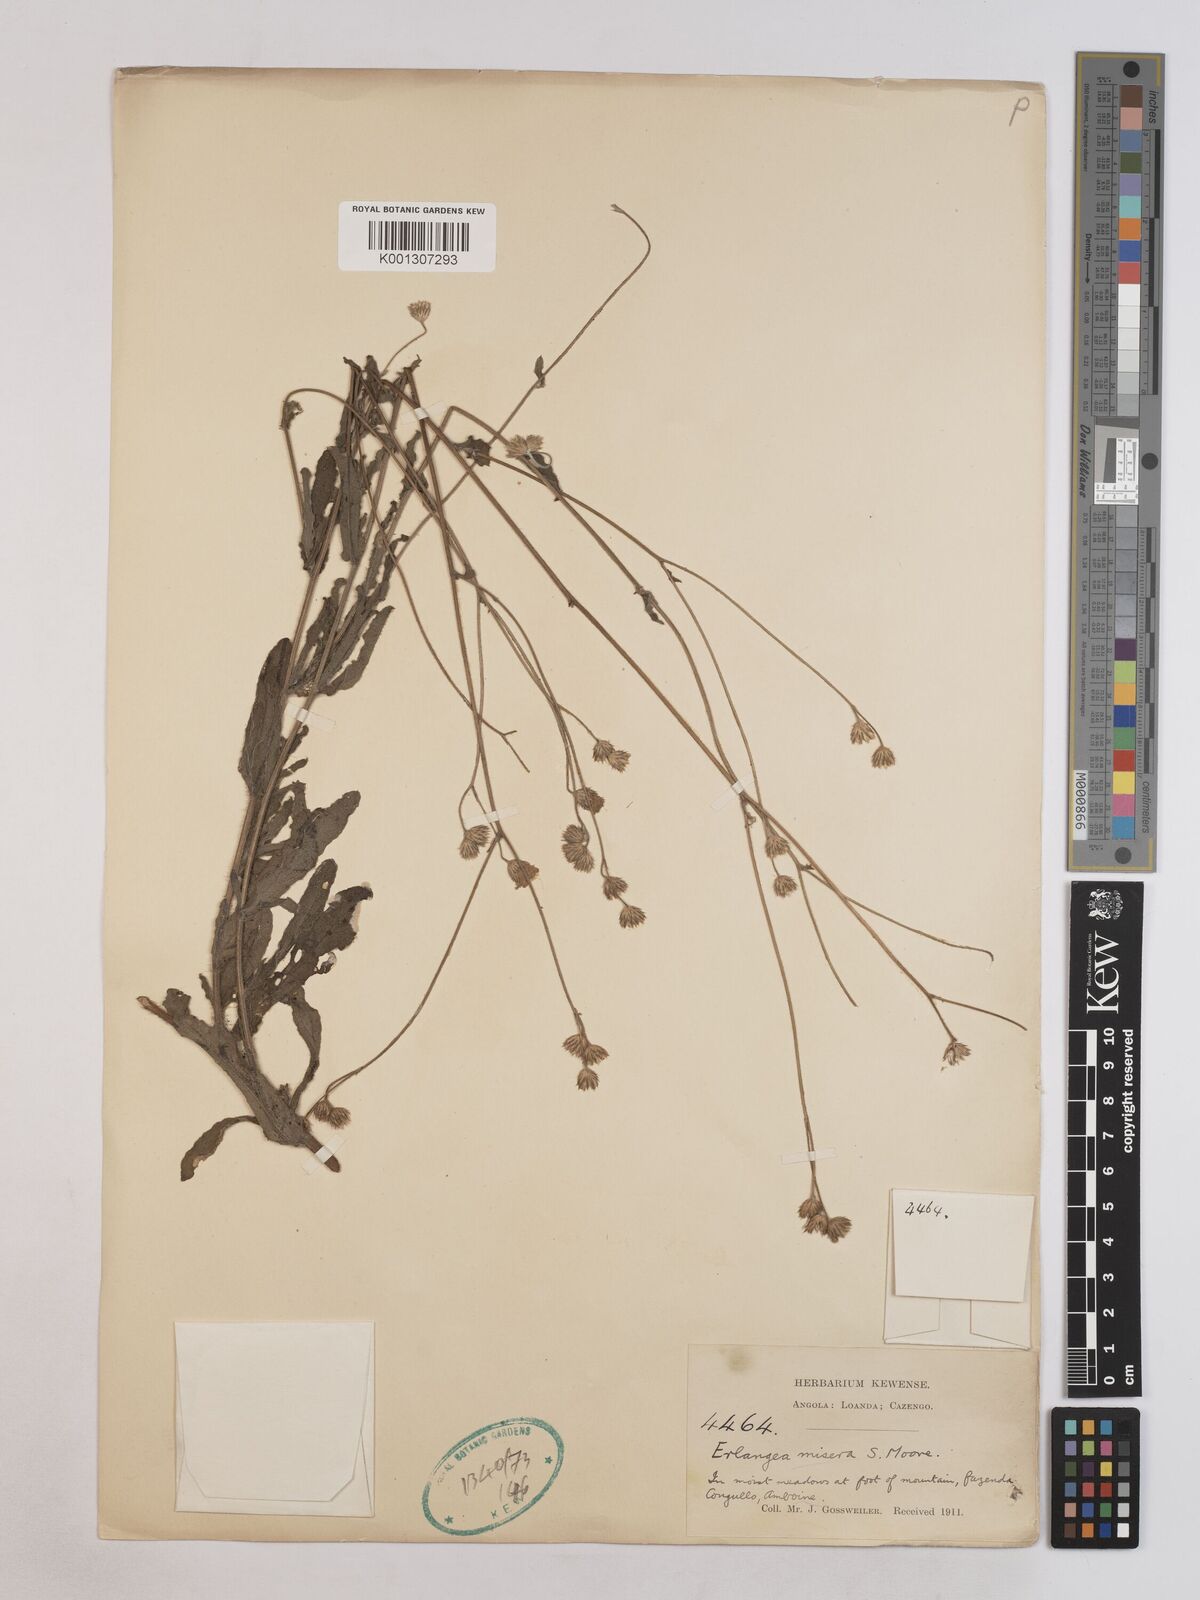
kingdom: Plantae
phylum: Tracheophyta
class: Magnoliopsida
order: Asterales
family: Asteraceae
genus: Erlangea
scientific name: Erlangea misera
